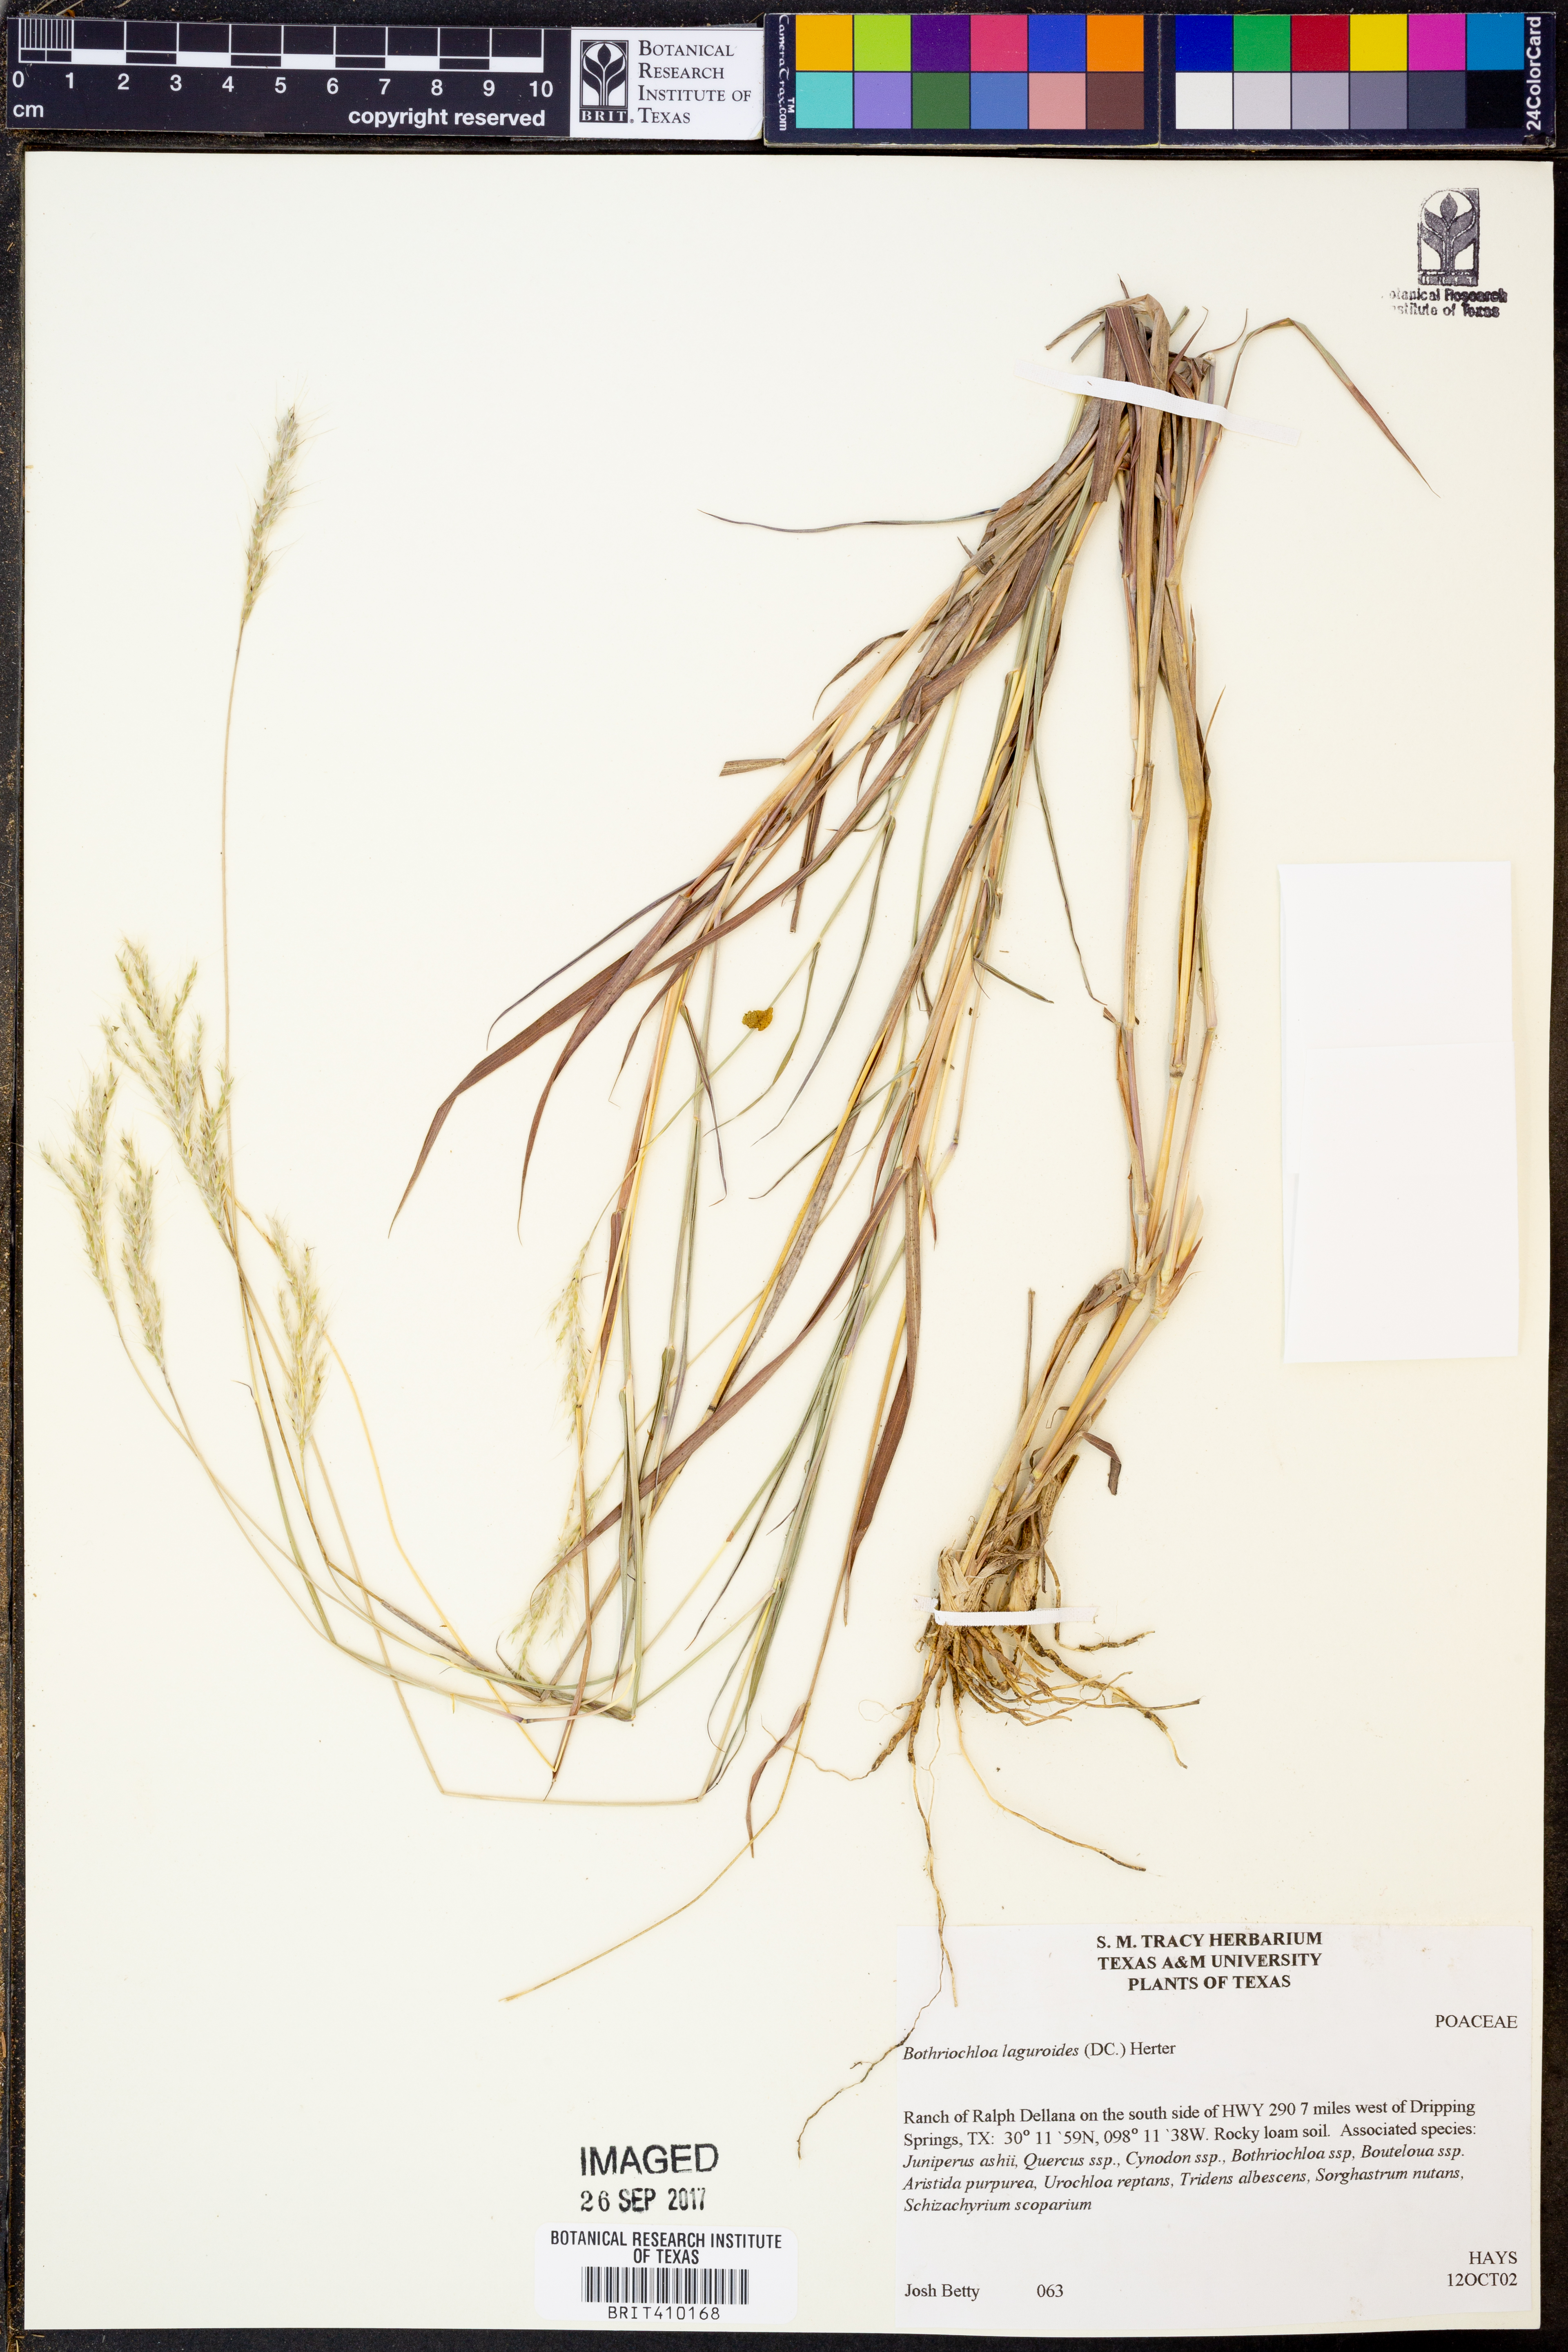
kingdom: Plantae
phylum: Tracheophyta
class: Liliopsida
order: Poales
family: Poaceae
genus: Bothriochloa
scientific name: Bothriochloa laguroides
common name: Silver bluestem
